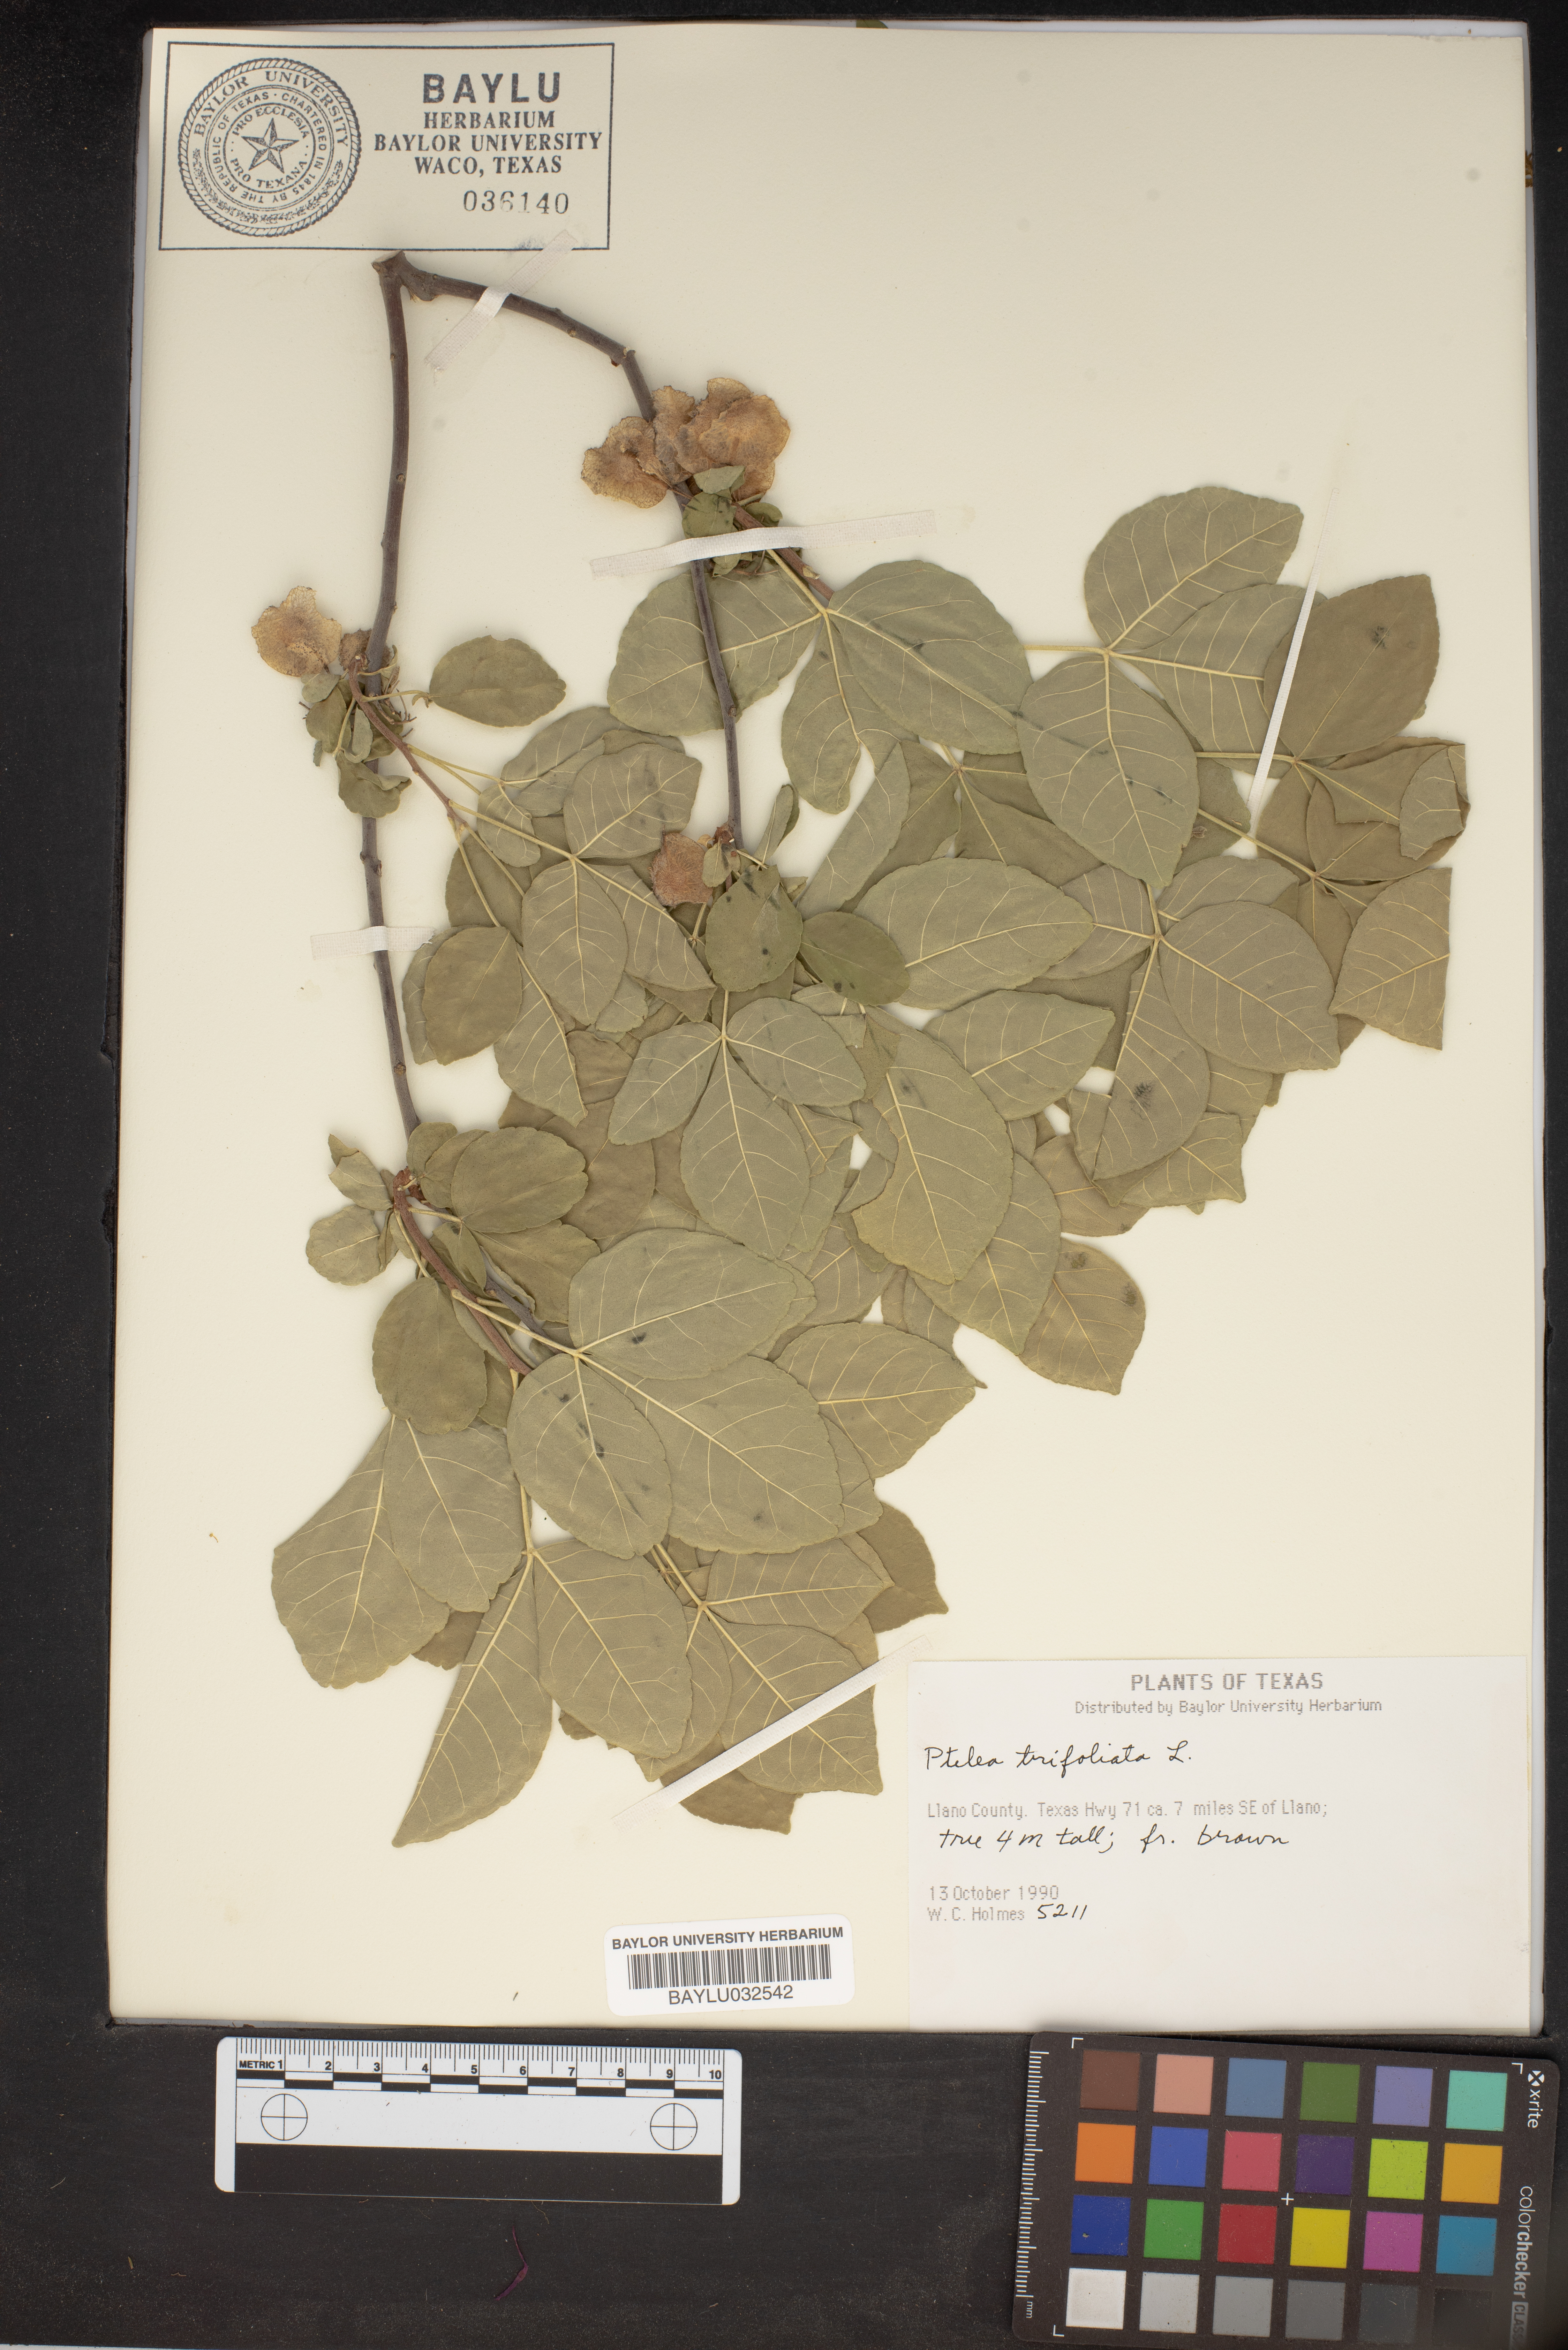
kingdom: Plantae
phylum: Tracheophyta
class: Magnoliopsida
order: Sapindales
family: Rutaceae
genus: Ptelea
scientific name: Ptelea trifoliata
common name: Common hop-tree
